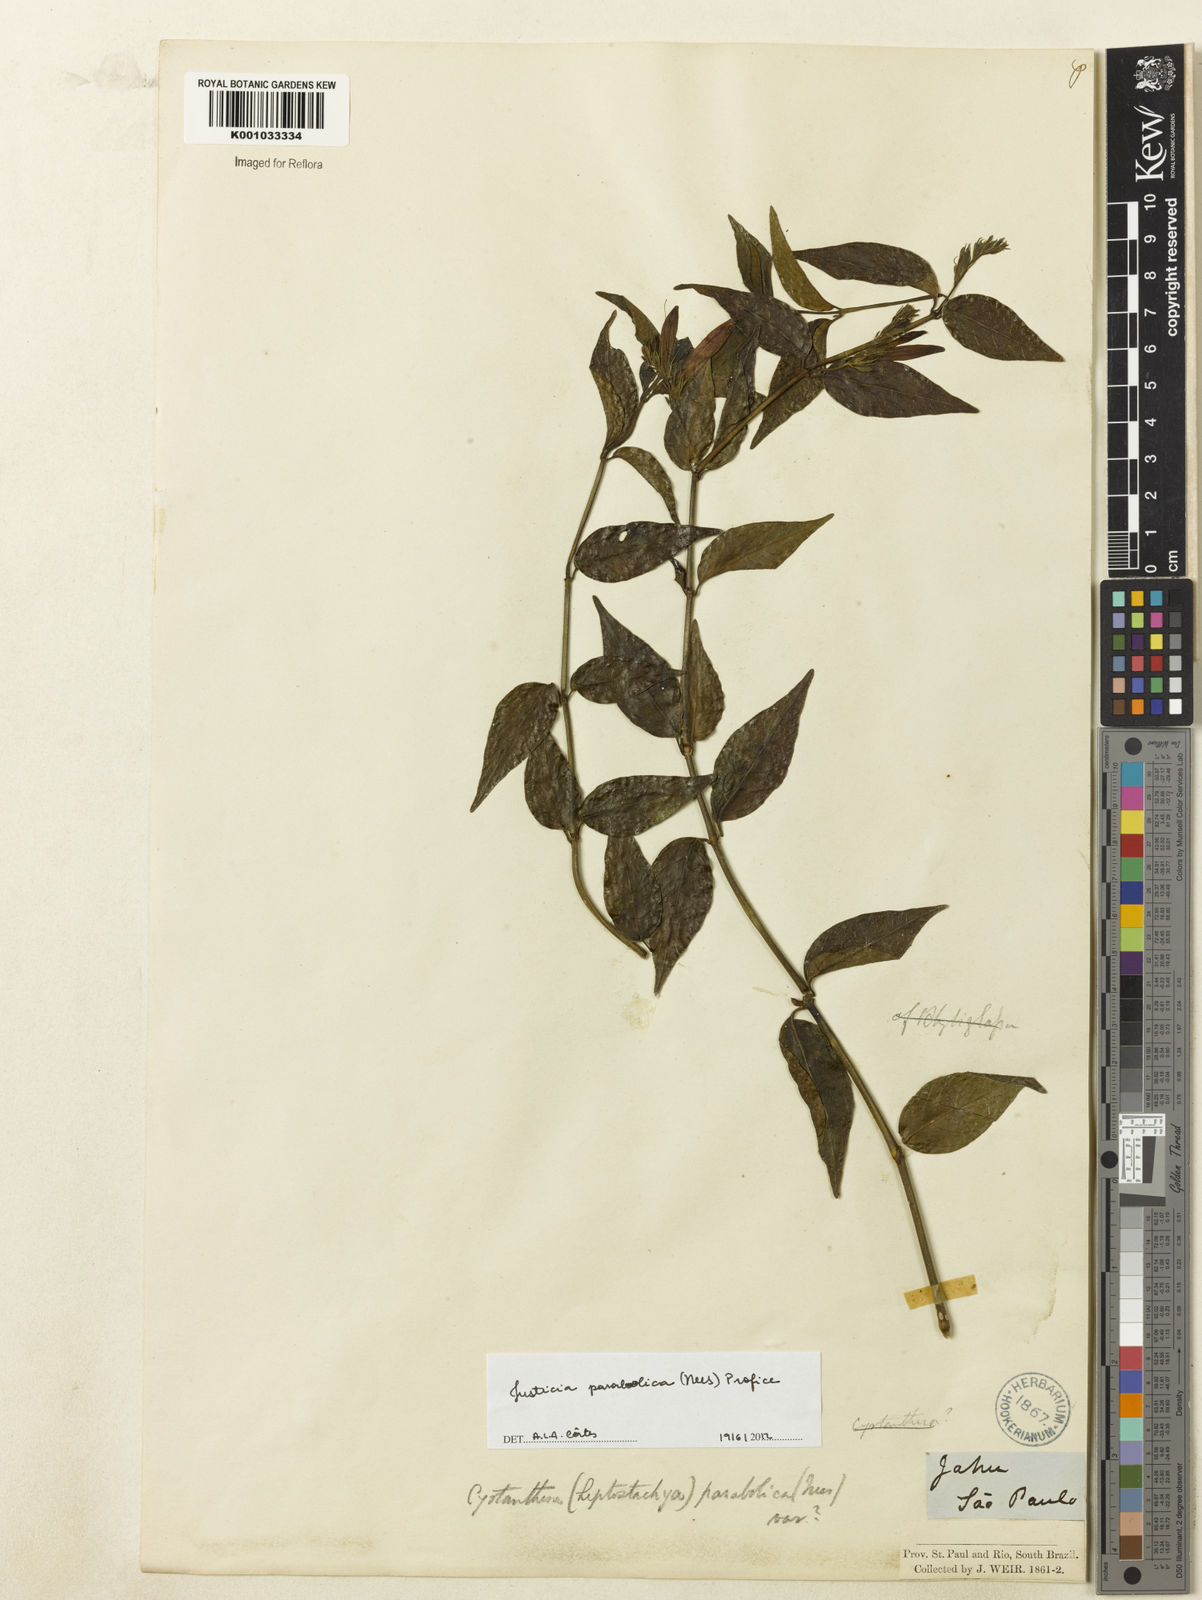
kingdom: Plantae
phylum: Tracheophyta
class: Magnoliopsida
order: Lamiales
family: Acanthaceae
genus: Justicia
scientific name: Justicia parabolica
